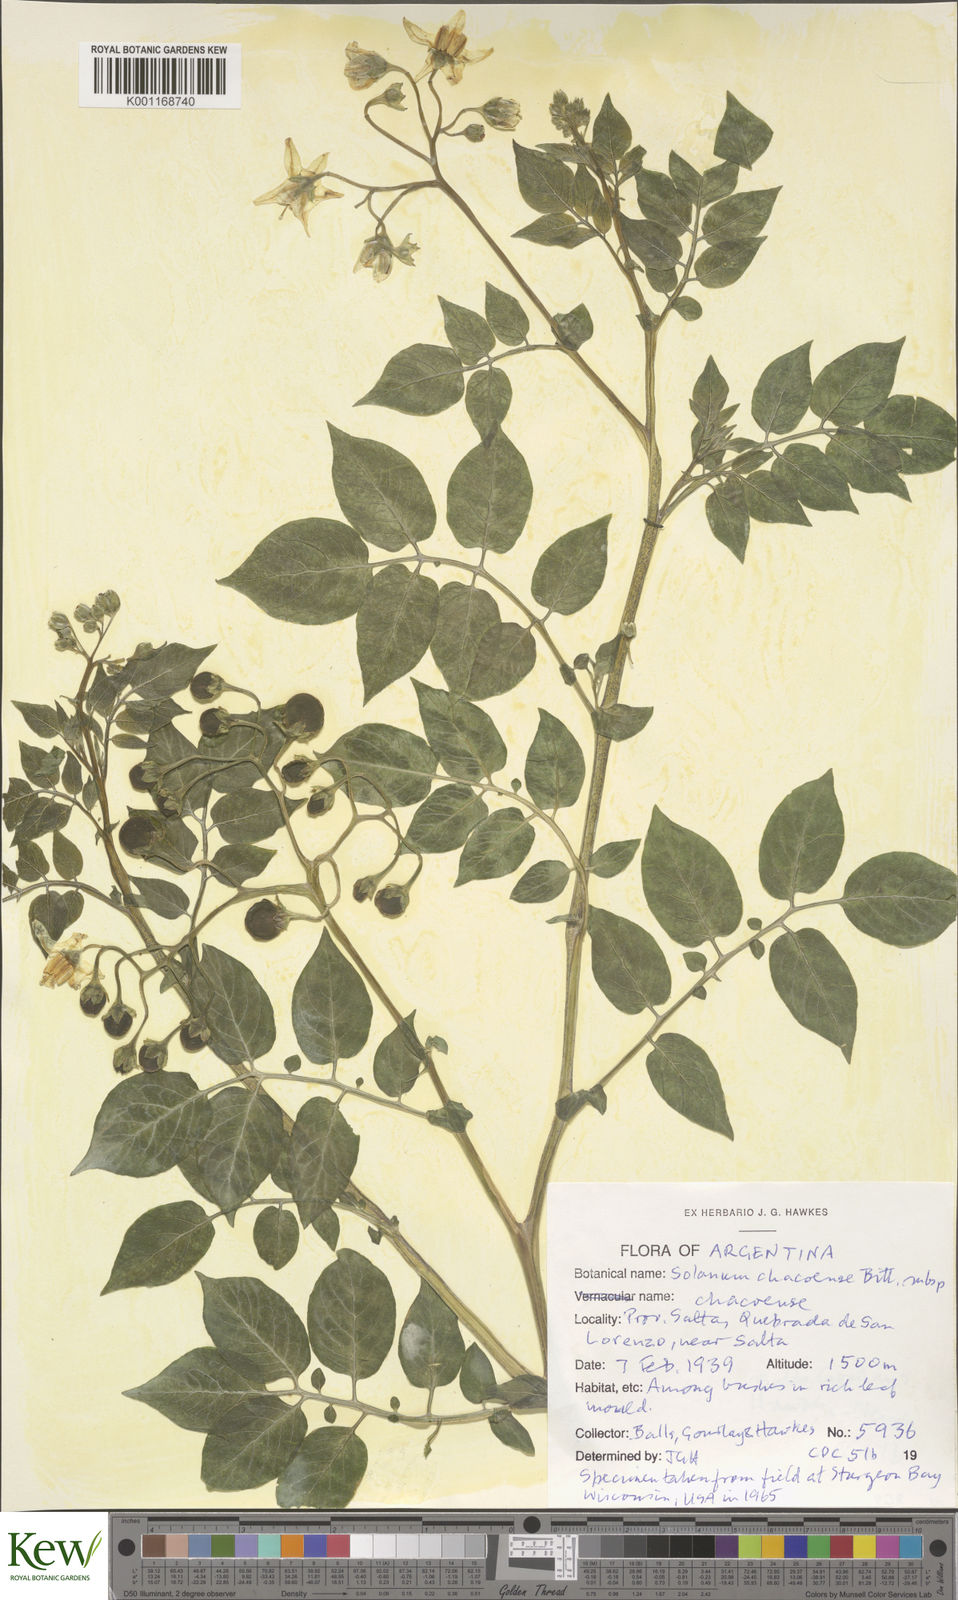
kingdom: Plantae
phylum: Tracheophyta
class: Magnoliopsida
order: Solanales
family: Solanaceae
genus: Solanum
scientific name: Solanum chacoense
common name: Chaco potato
